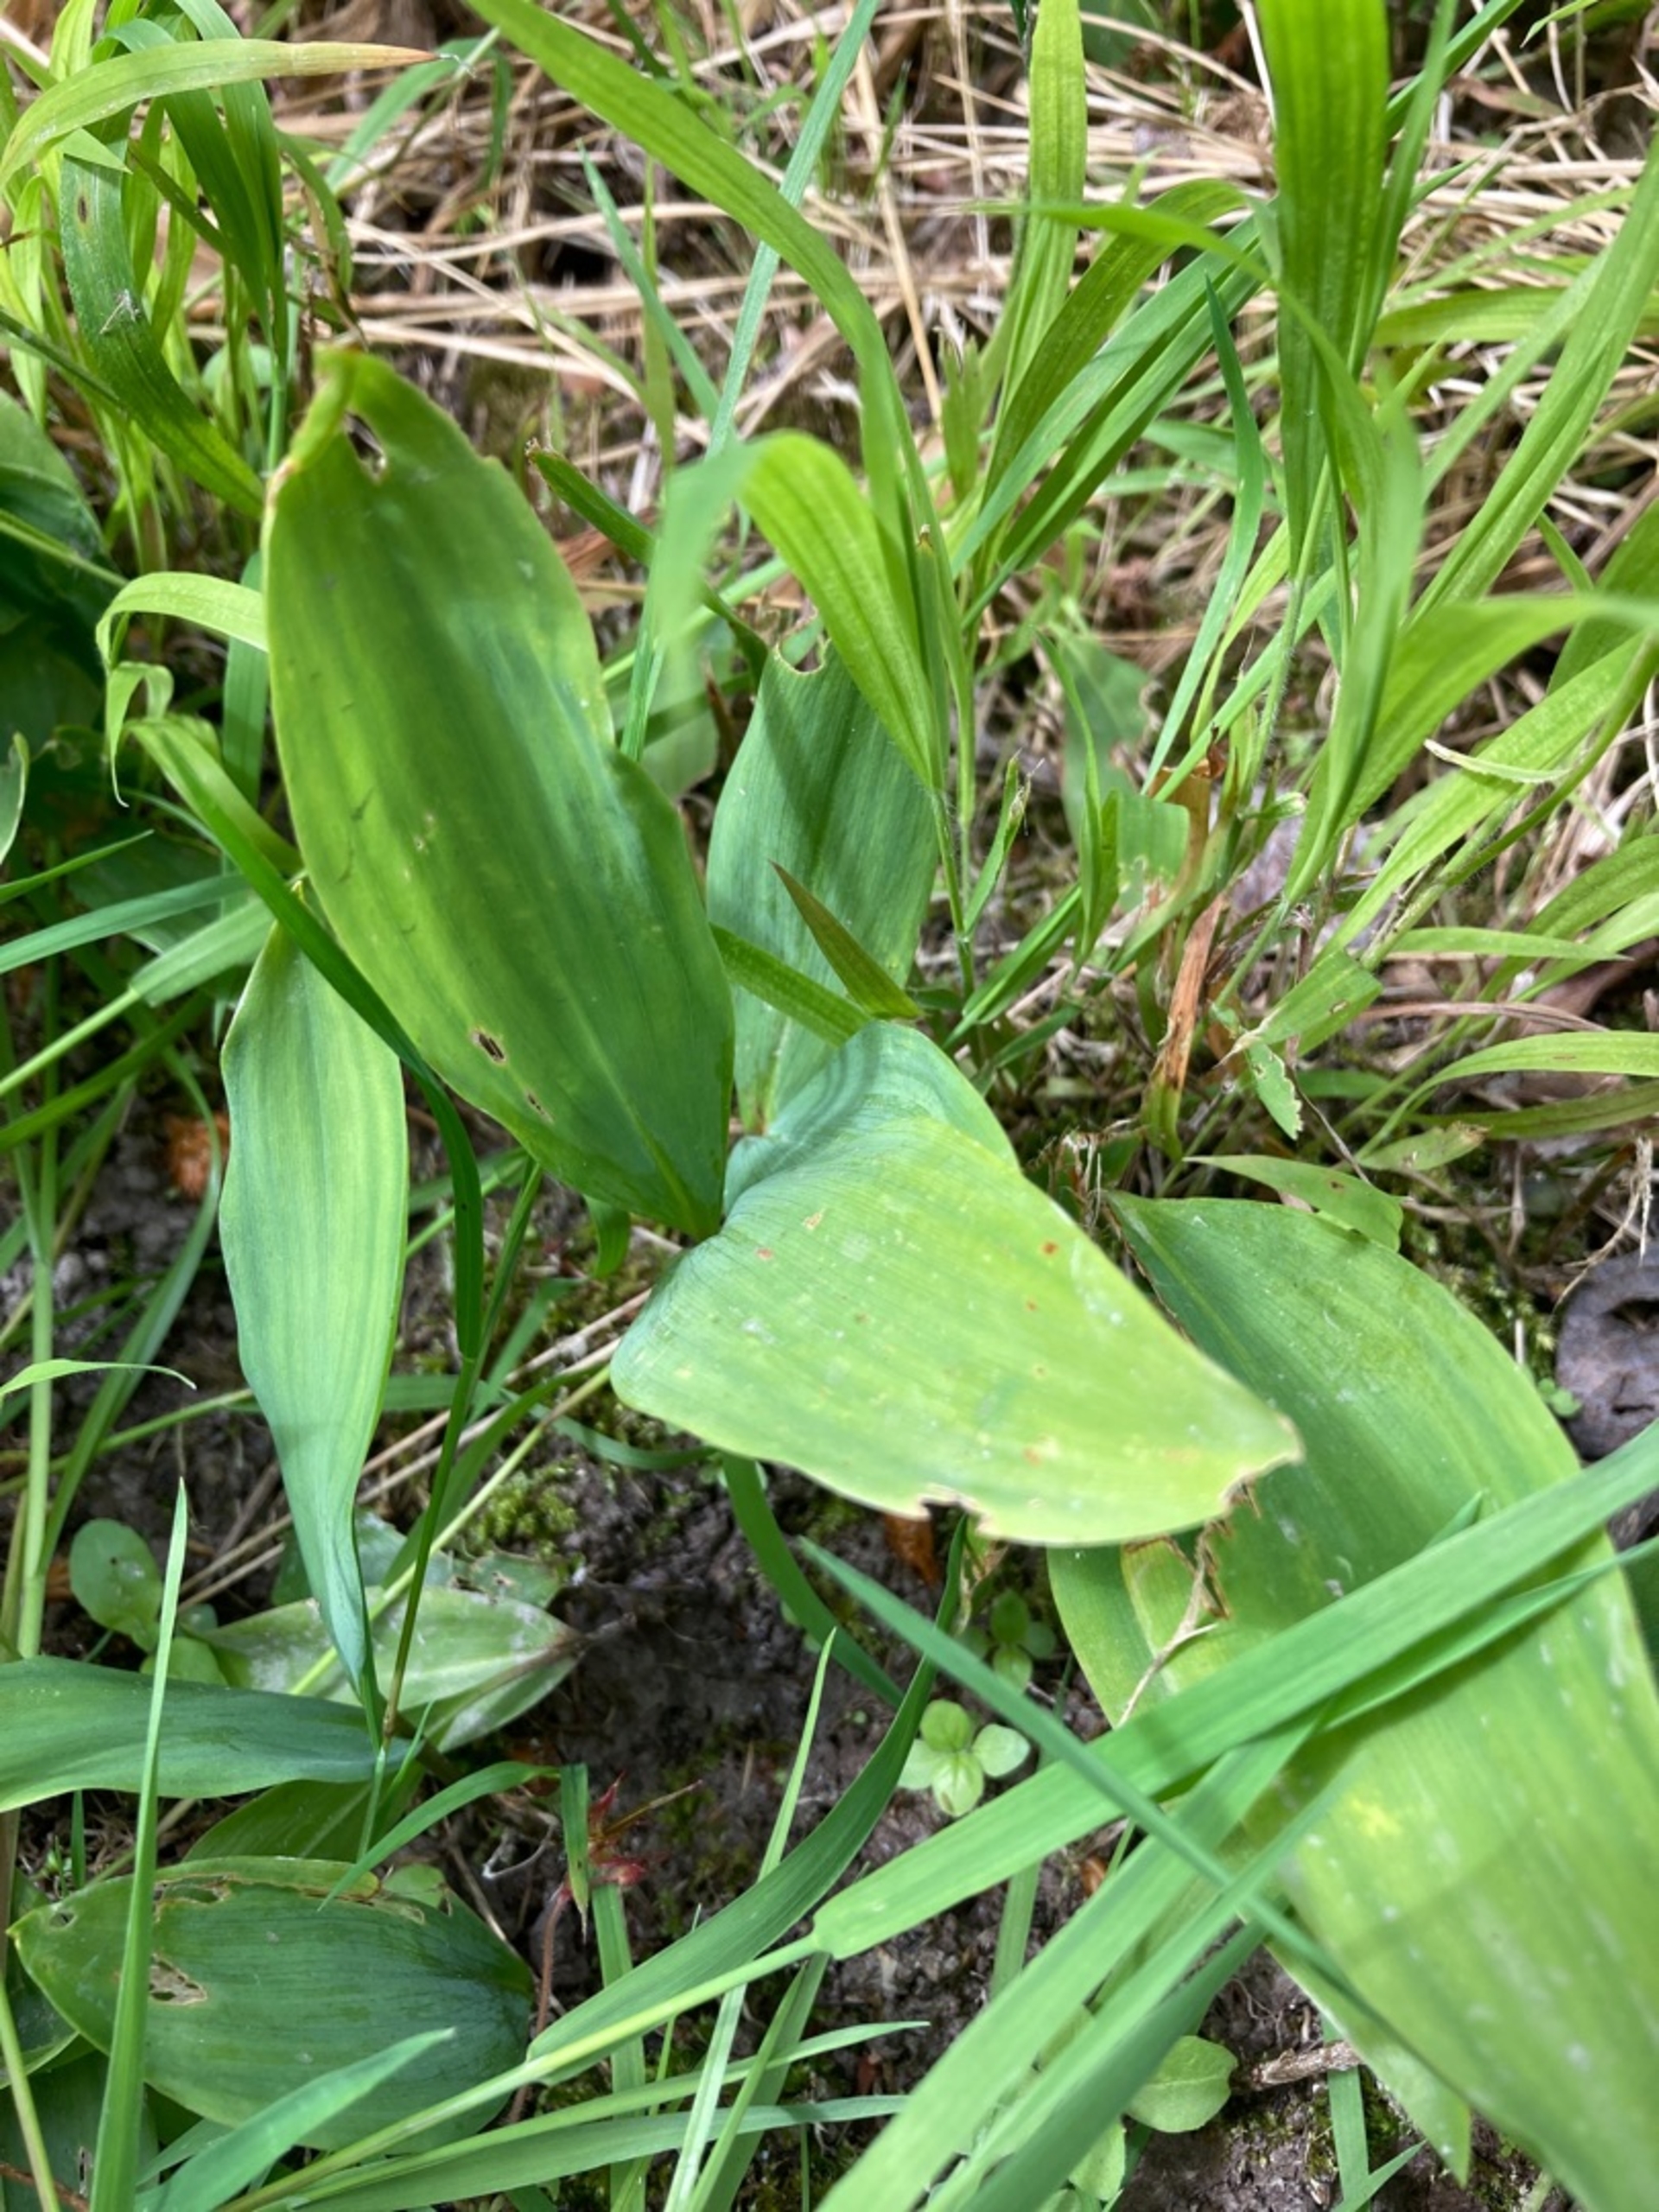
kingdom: Plantae
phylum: Tracheophyta
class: Liliopsida
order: Asparagales
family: Asparagaceae
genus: Convallaria
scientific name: Convallaria majalis
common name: Liljekonval
